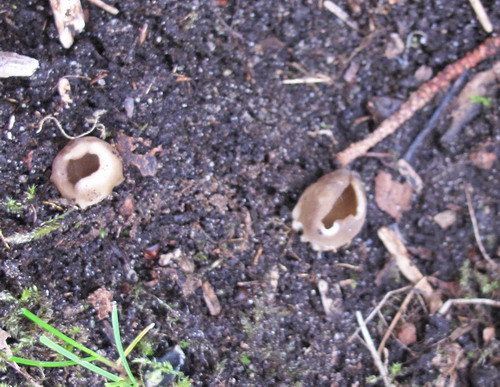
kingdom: Fungi
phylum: Ascomycota
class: Pezizomycetes
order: Pezizales
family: Helvellaceae
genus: Helvella
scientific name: Helvella acetabulum
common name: pokal-foldhat
